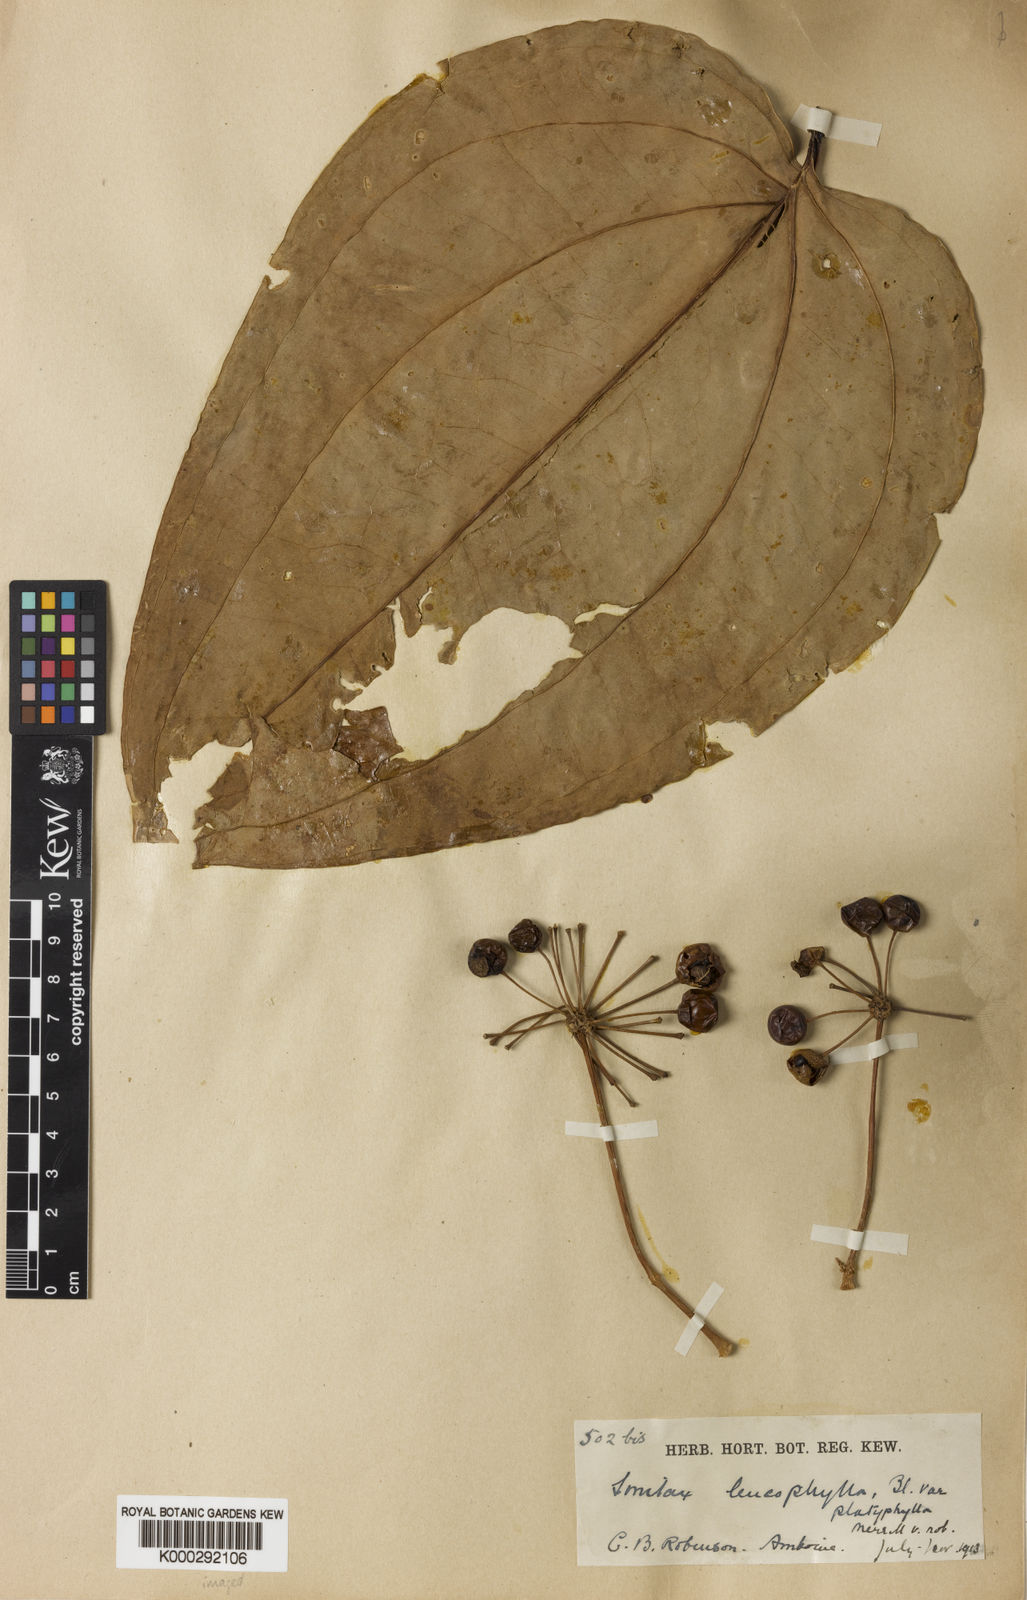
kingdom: Plantae
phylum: Tracheophyta
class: Liliopsida
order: Liliales
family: Smilacaceae
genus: Smilax
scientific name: Smilax leucophylla
